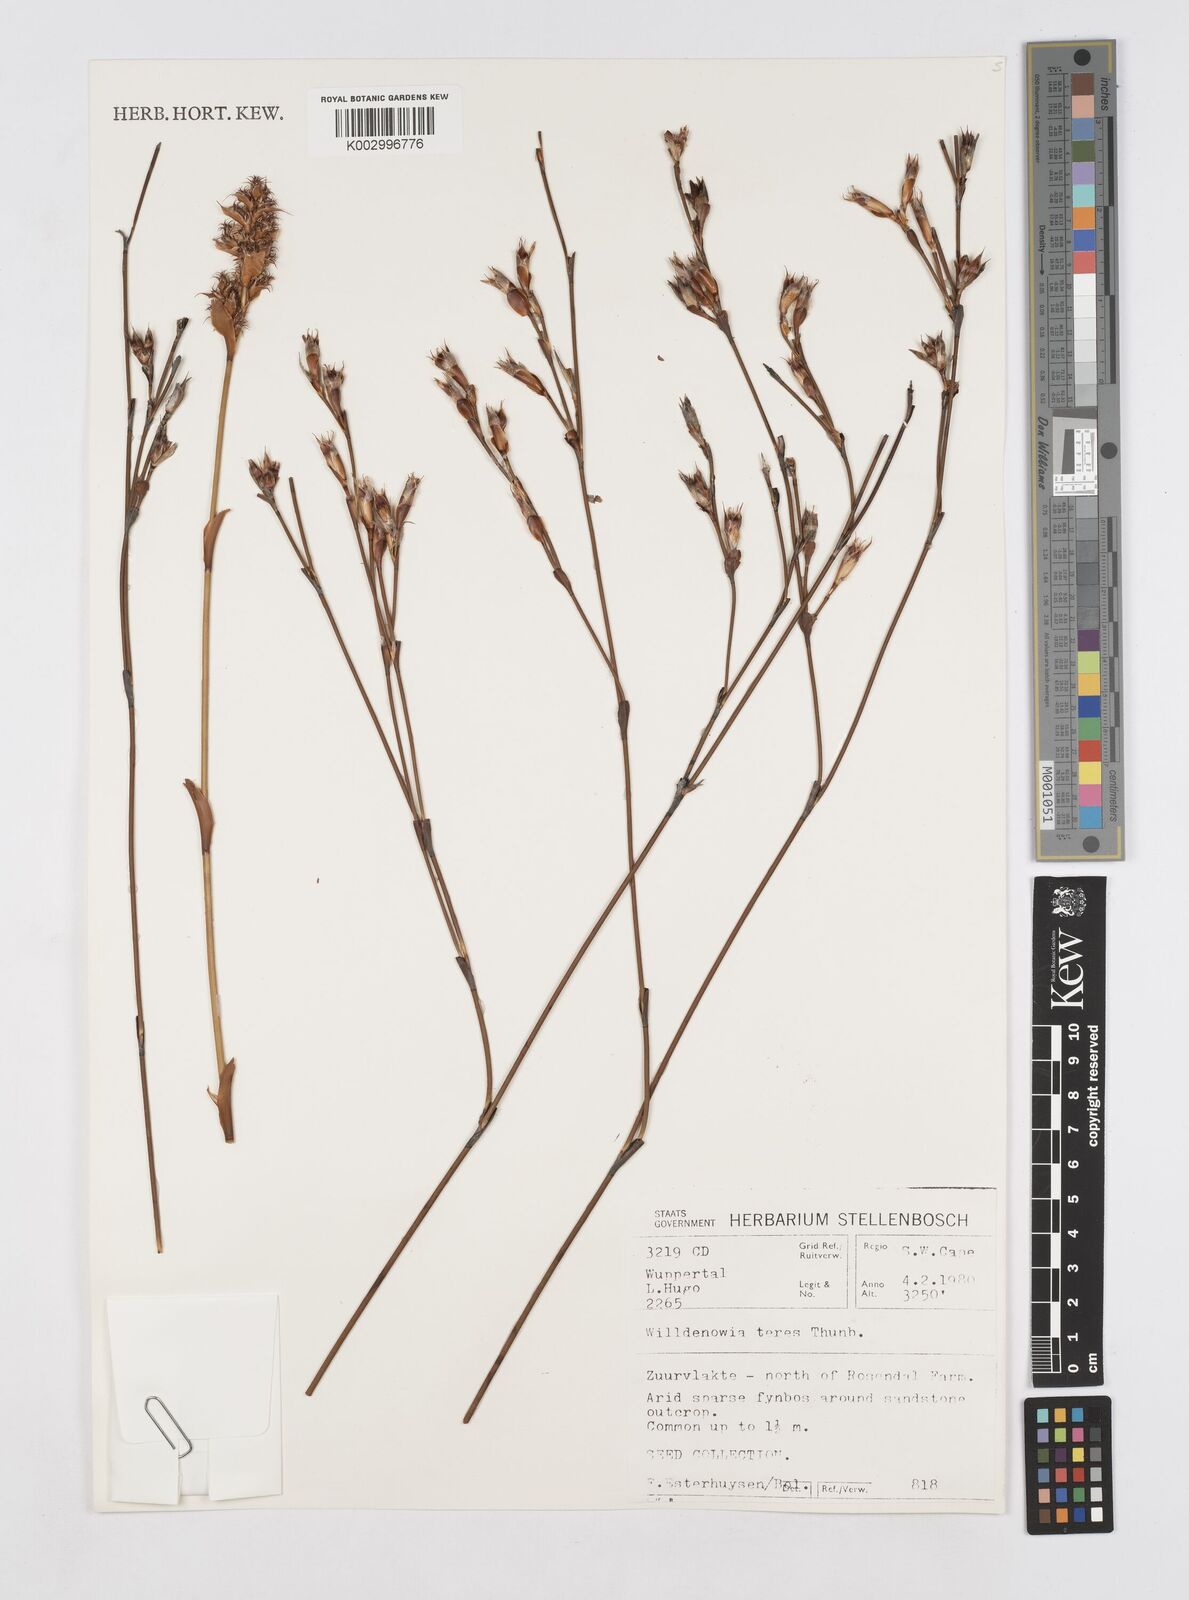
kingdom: Plantae
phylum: Tracheophyta
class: Liliopsida
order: Poales
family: Restionaceae
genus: Willdenowia
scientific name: Willdenowia teres
